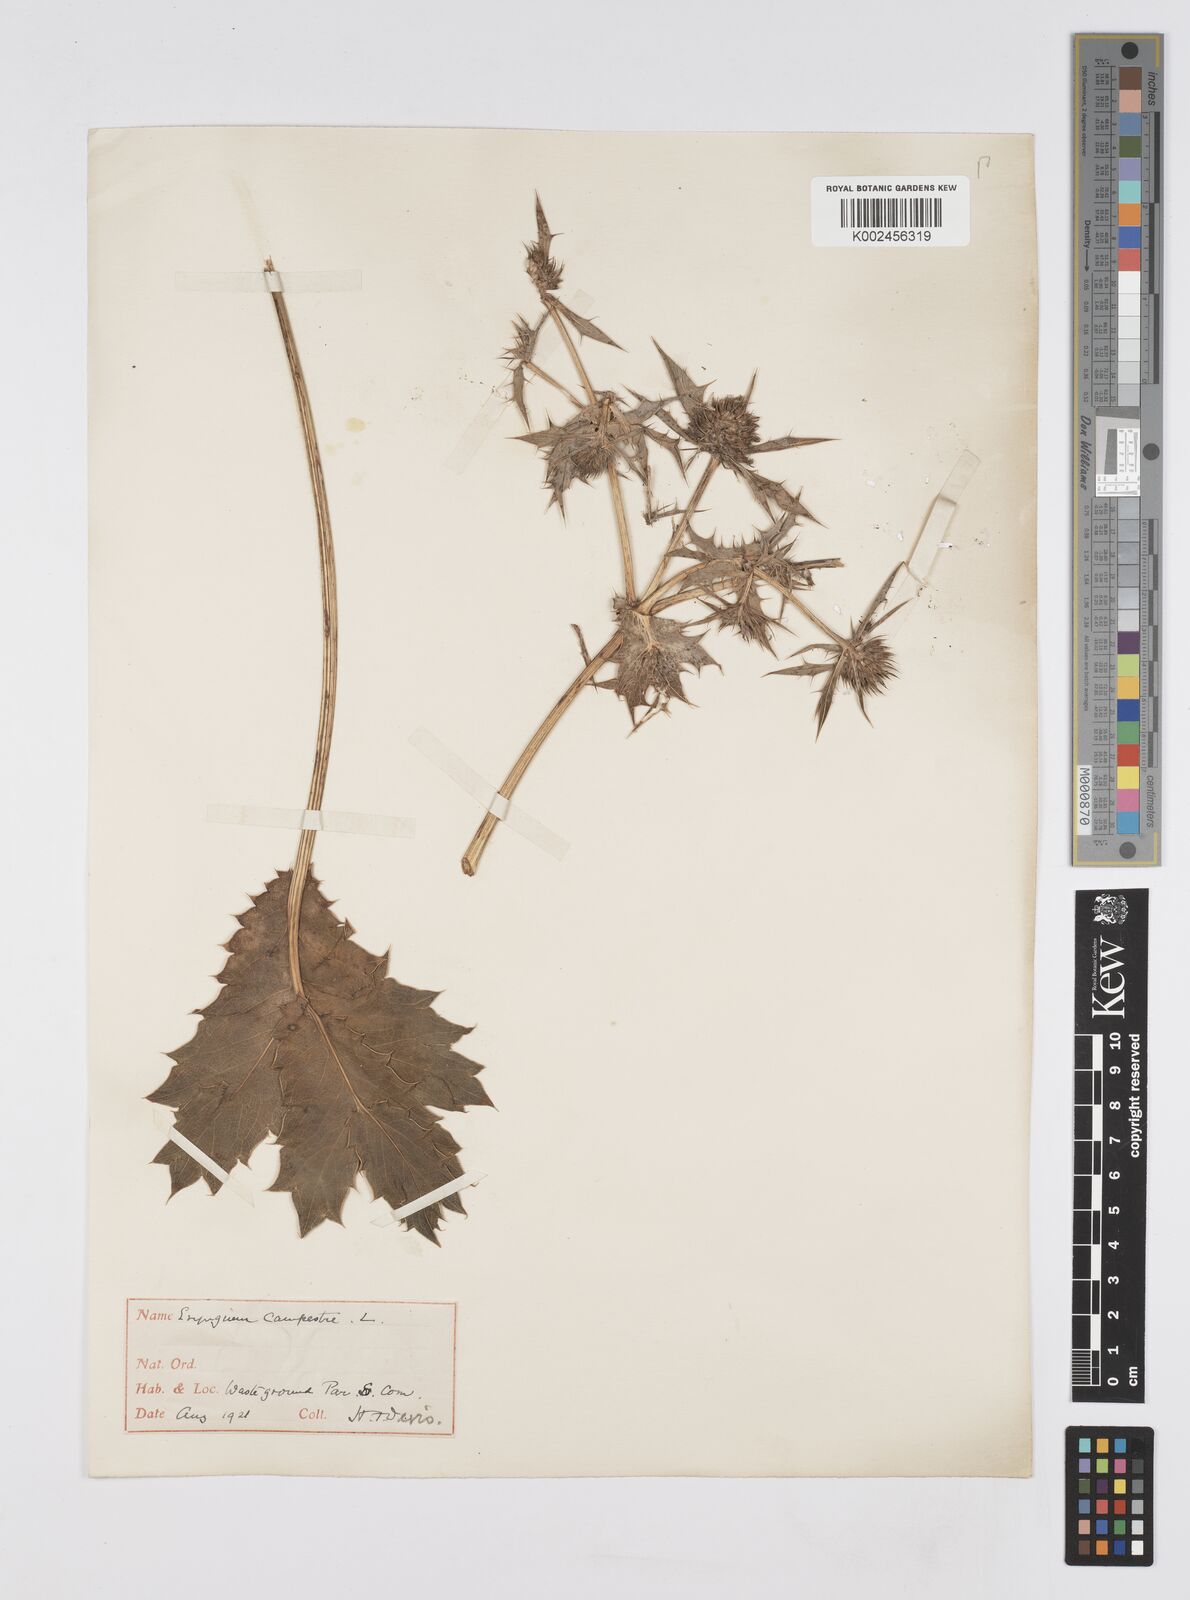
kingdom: Plantae
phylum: Tracheophyta
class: Magnoliopsida
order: Apiales
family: Apiaceae
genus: Eryngium
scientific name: Eryngium campestre
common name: Field eryngo
